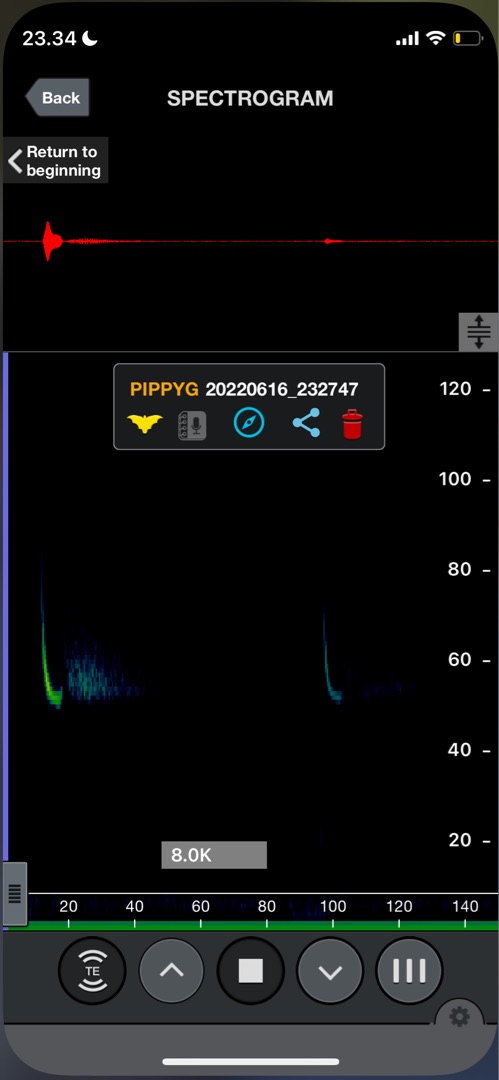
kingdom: Animalia
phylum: Chordata
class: Mammalia
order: Chiroptera
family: Vespertilionidae
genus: Pipistrellus
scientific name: Pipistrellus pygmaeus
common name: Dværgflagermus
